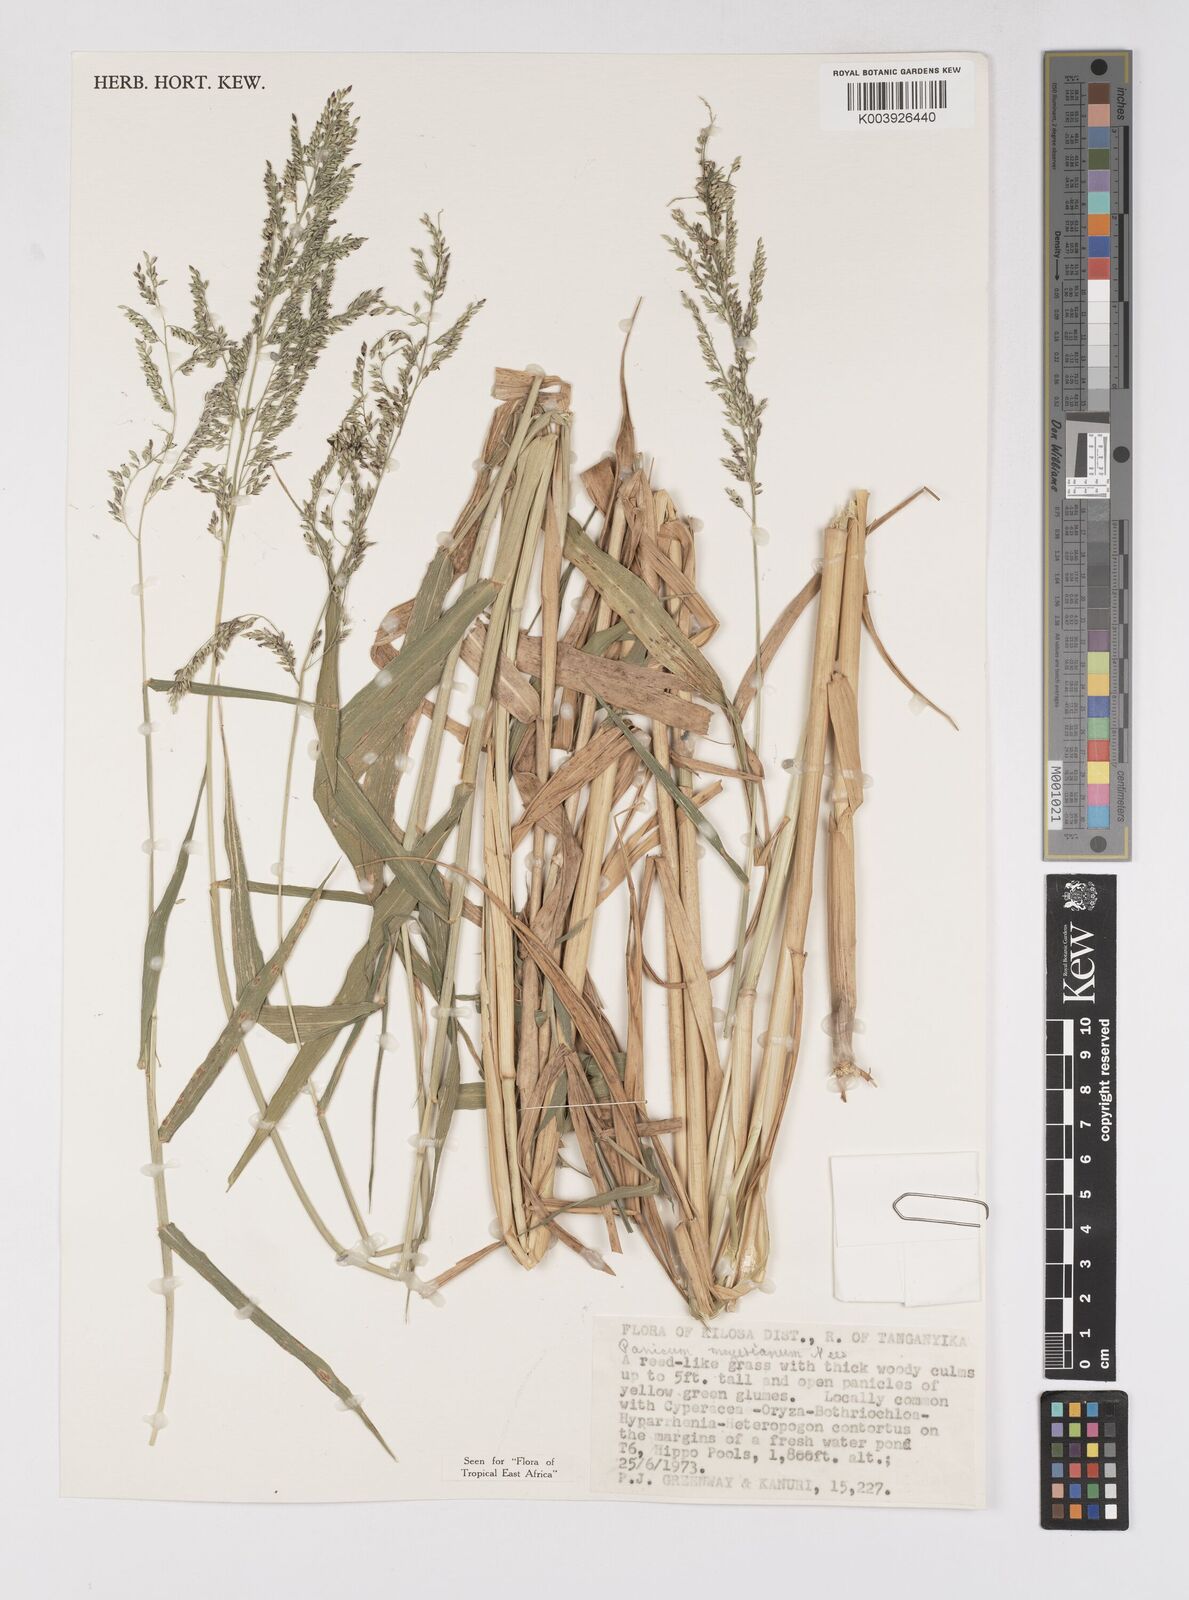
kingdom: Plantae
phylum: Tracheophyta
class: Liliopsida
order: Poales
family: Poaceae
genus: Eriochloa
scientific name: Eriochloa meyeriana
